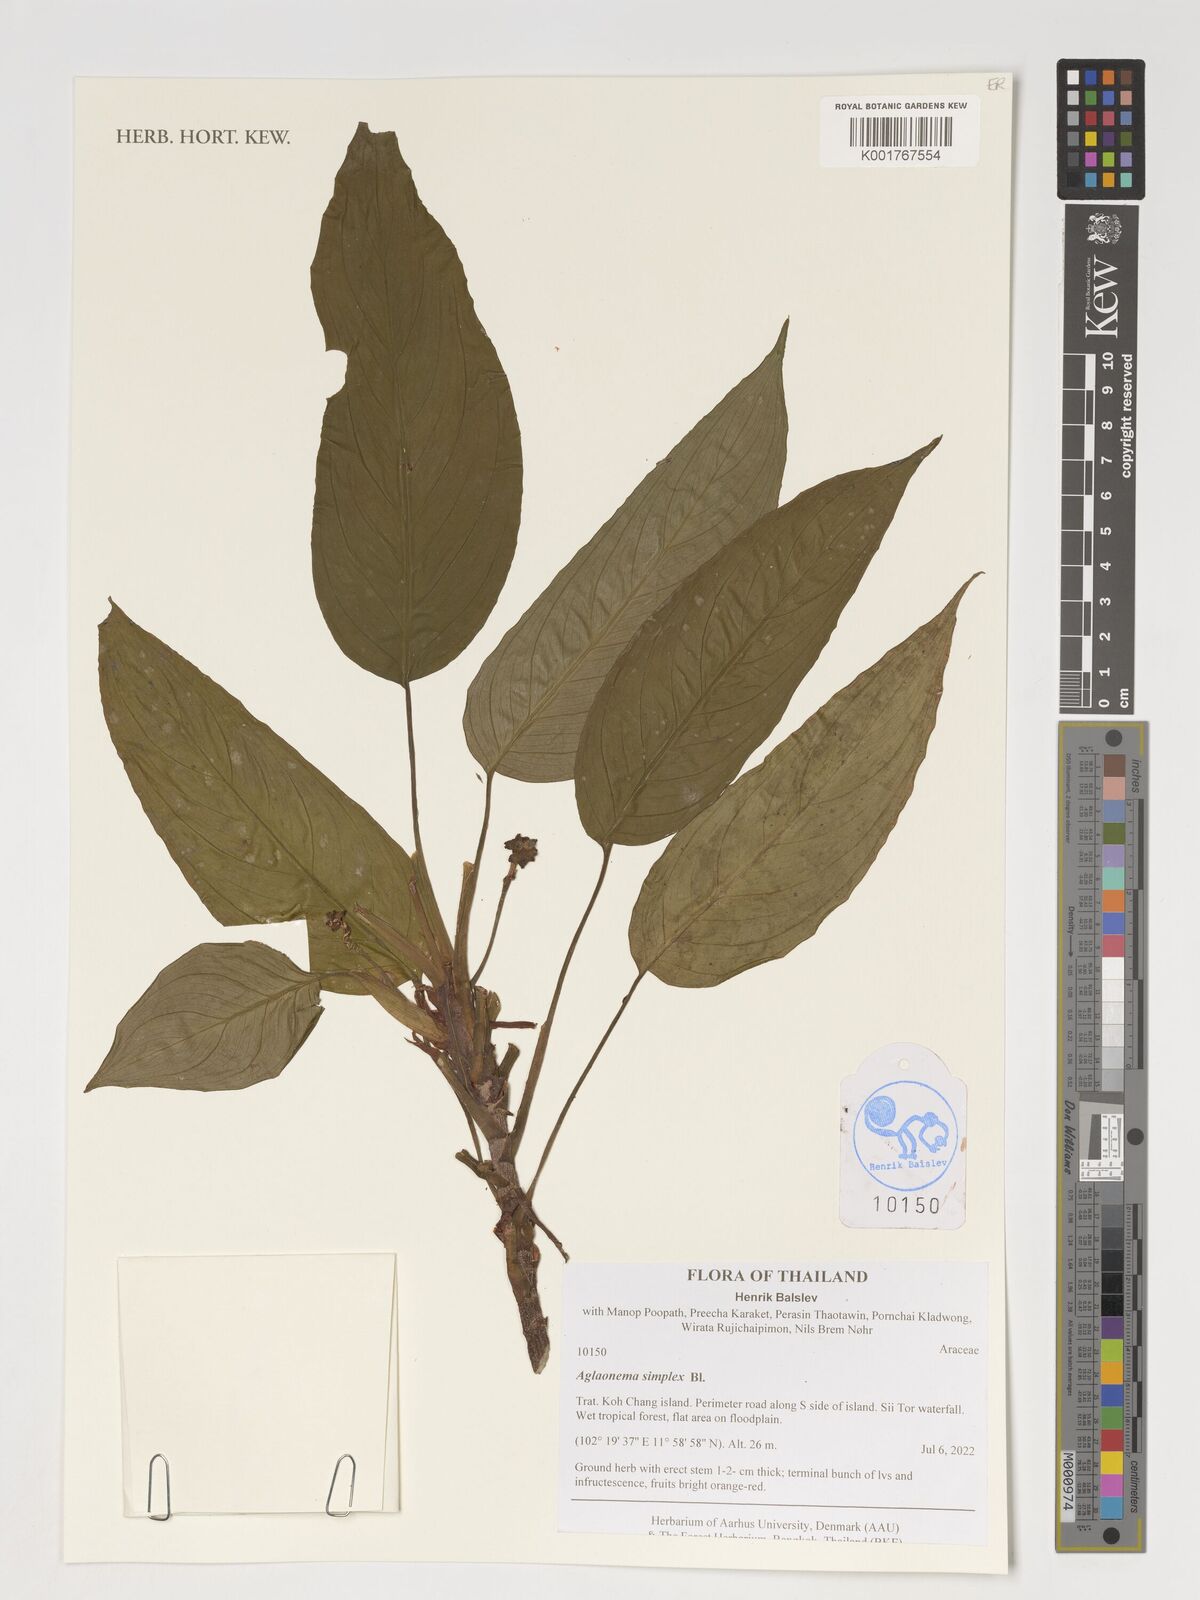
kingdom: Plantae
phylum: Tracheophyta
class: Liliopsida
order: Alismatales
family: Araceae
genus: Aglaonema
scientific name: Aglaonema simplex
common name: Malayan-sword
